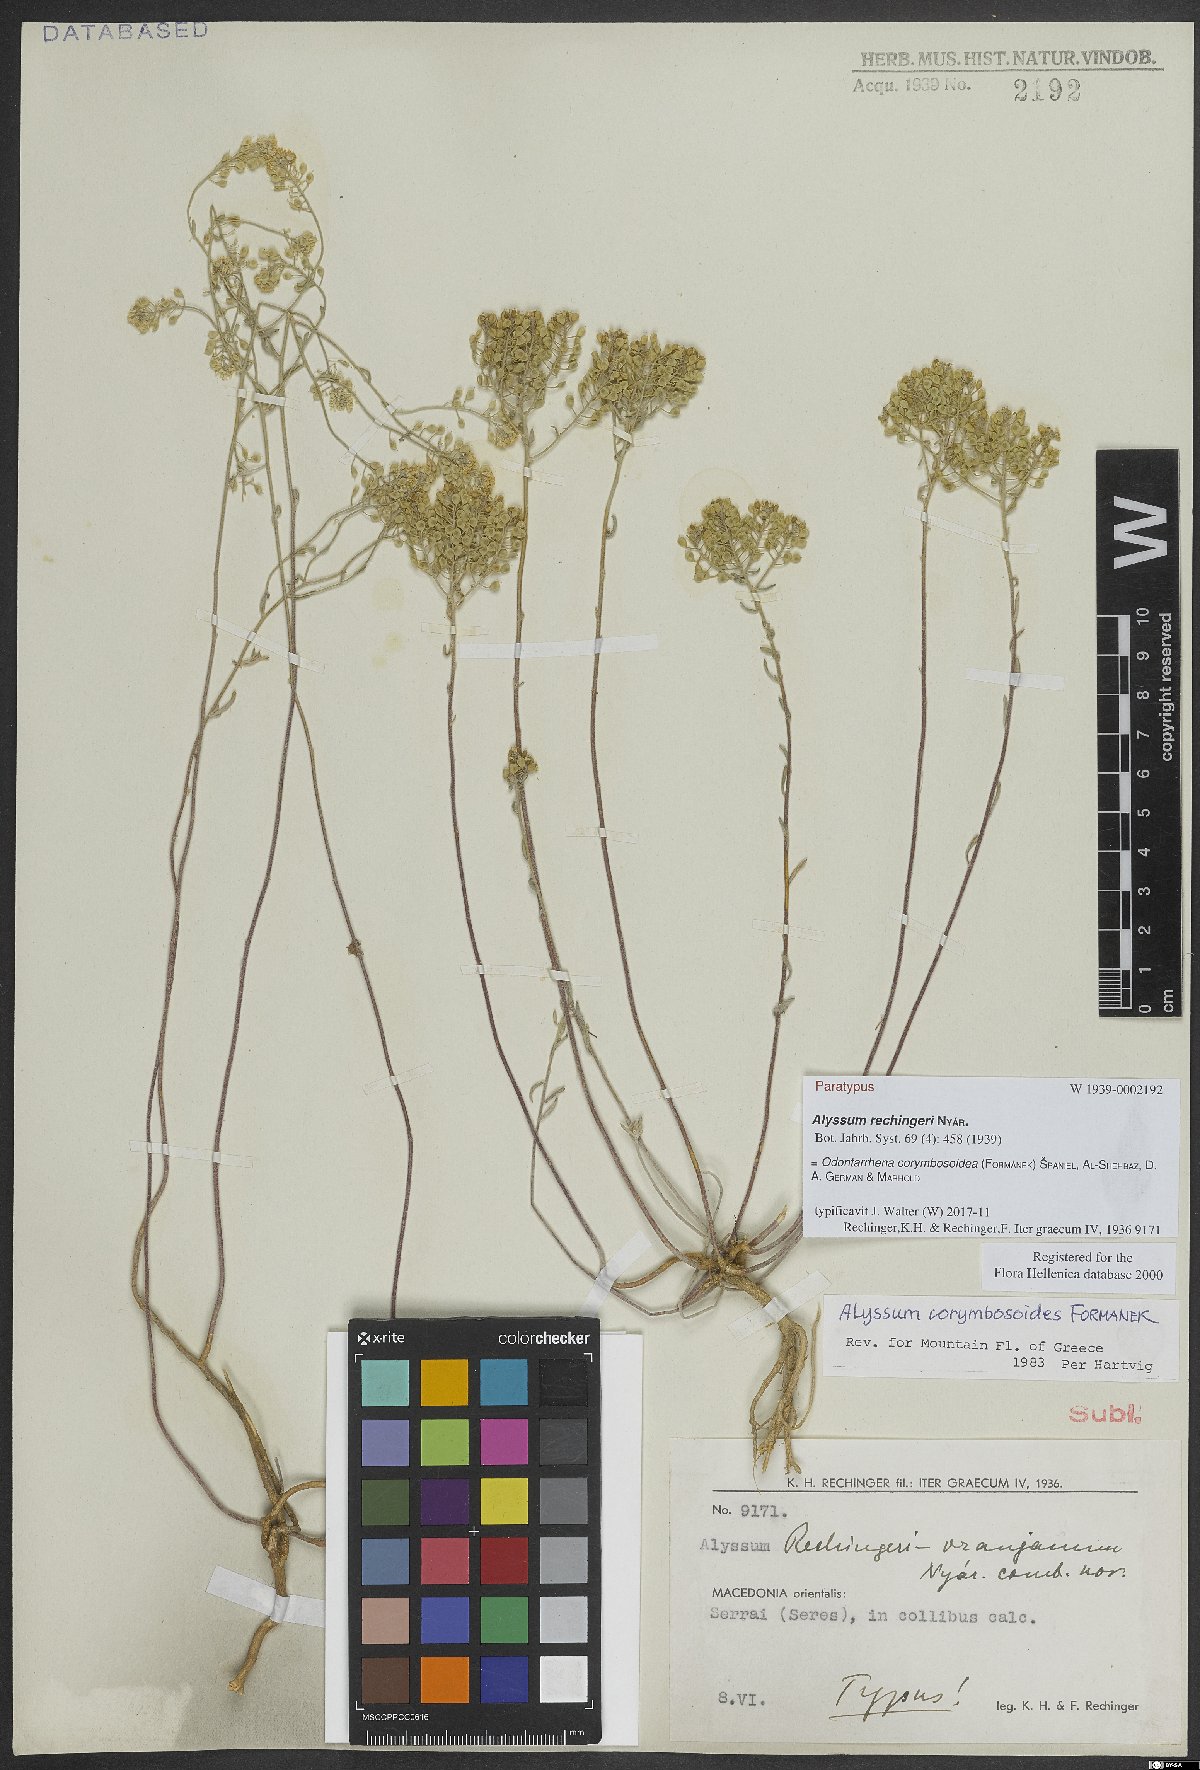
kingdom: Plantae
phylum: Tracheophyta
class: Magnoliopsida
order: Brassicales
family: Brassicaceae
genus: Odontarrhena
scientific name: Odontarrhena corymbosoidea
